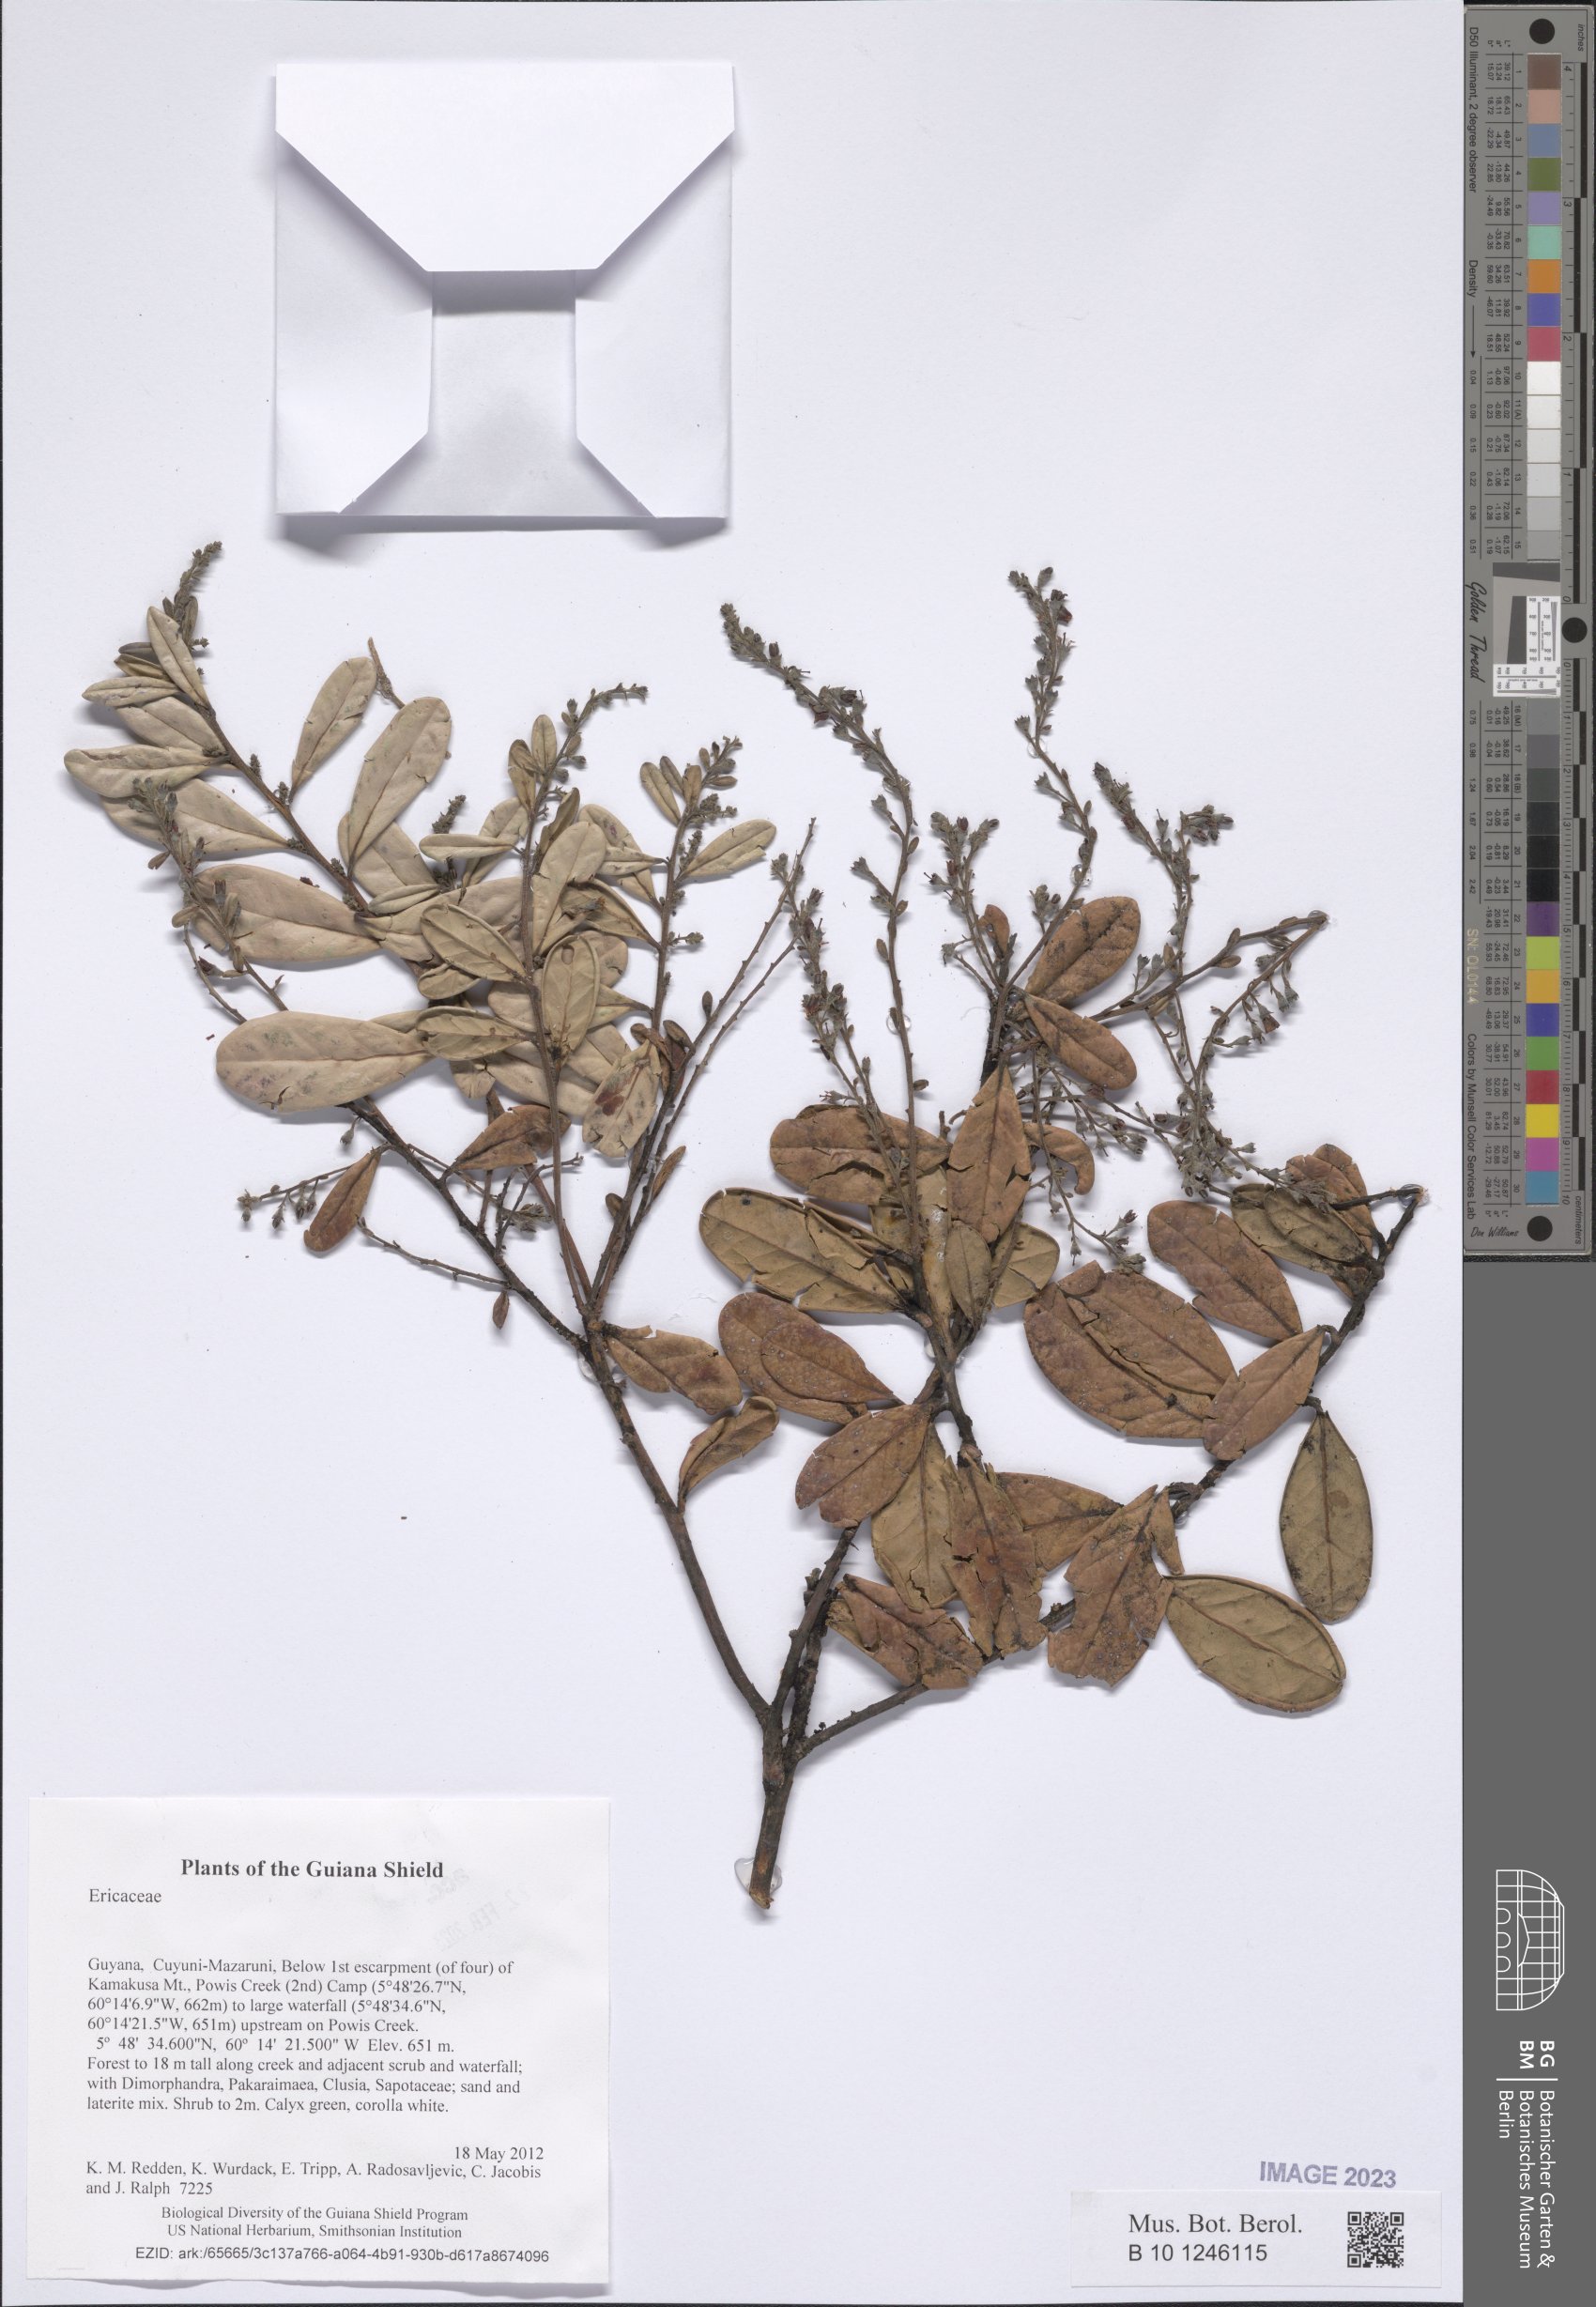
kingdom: Plantae
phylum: Tracheophyta
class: Magnoliopsida
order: Ericales
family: Ericaceae
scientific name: Ericaceae
